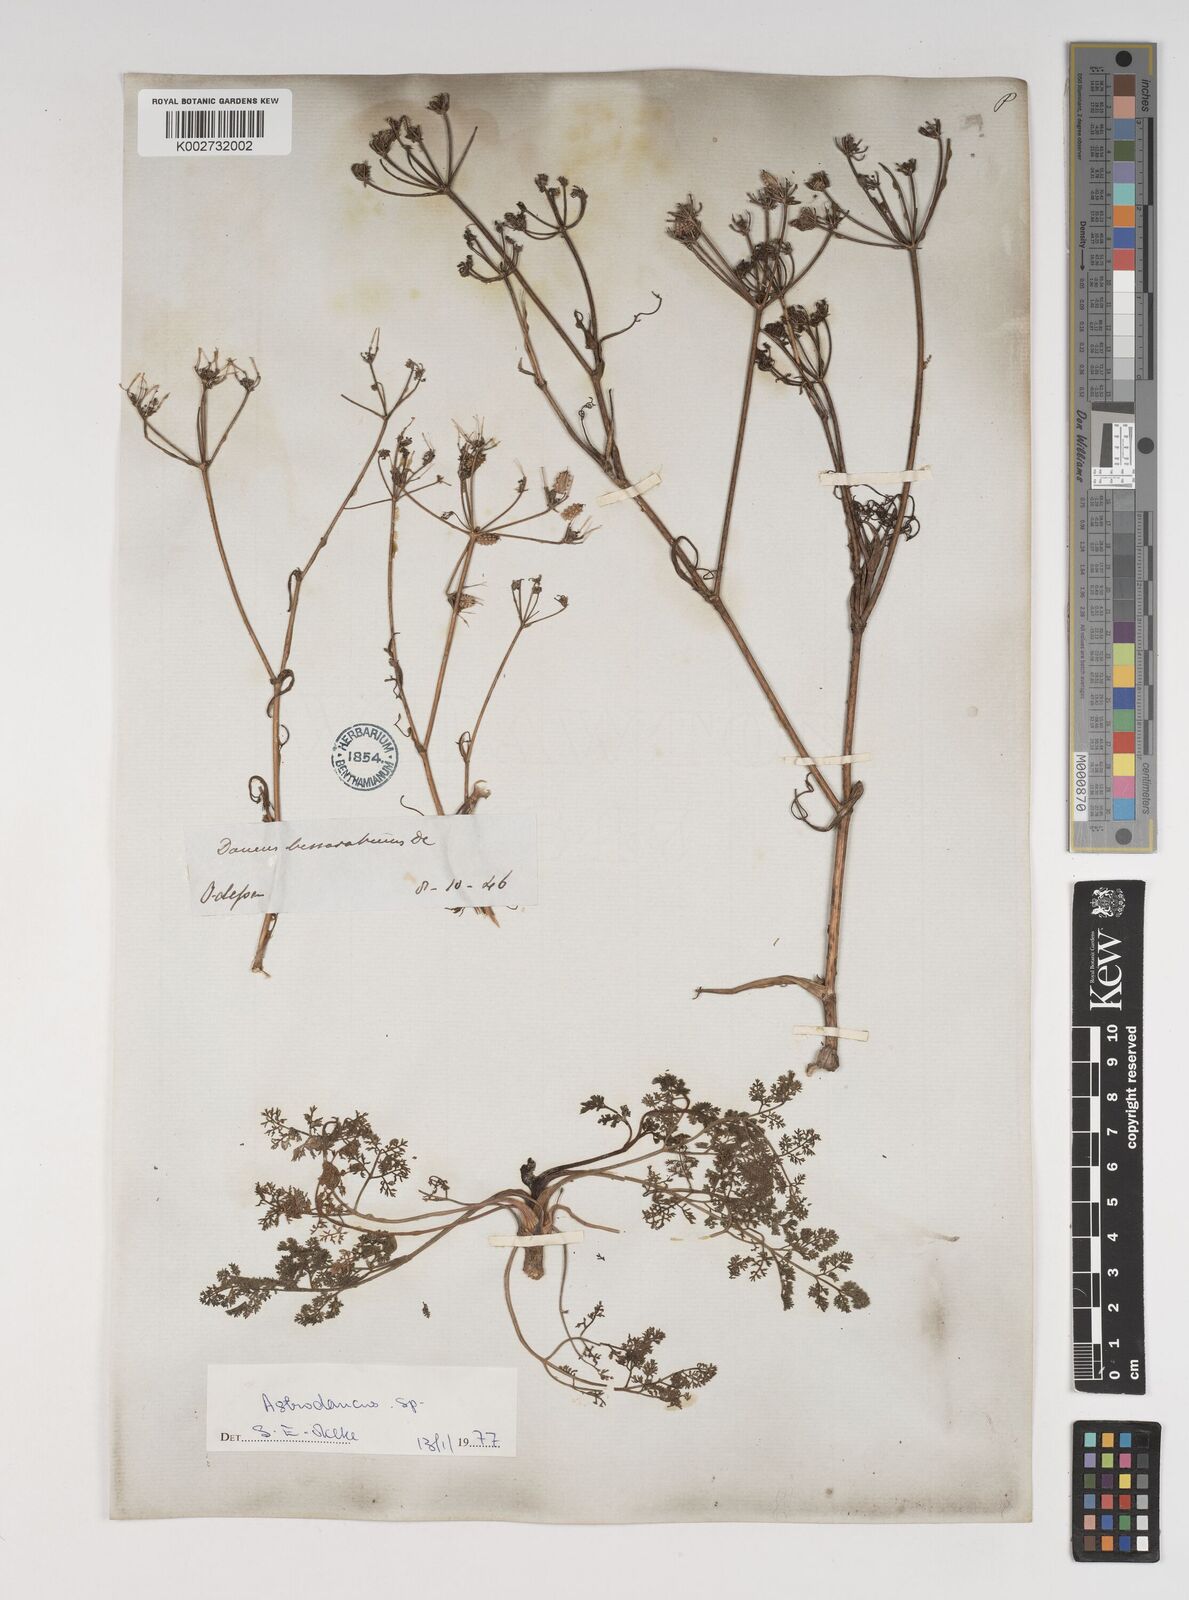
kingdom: Plantae
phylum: Tracheophyta
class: Magnoliopsida
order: Apiales
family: Apiaceae
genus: Astrodaucus
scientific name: Astrodaucus littoralis
